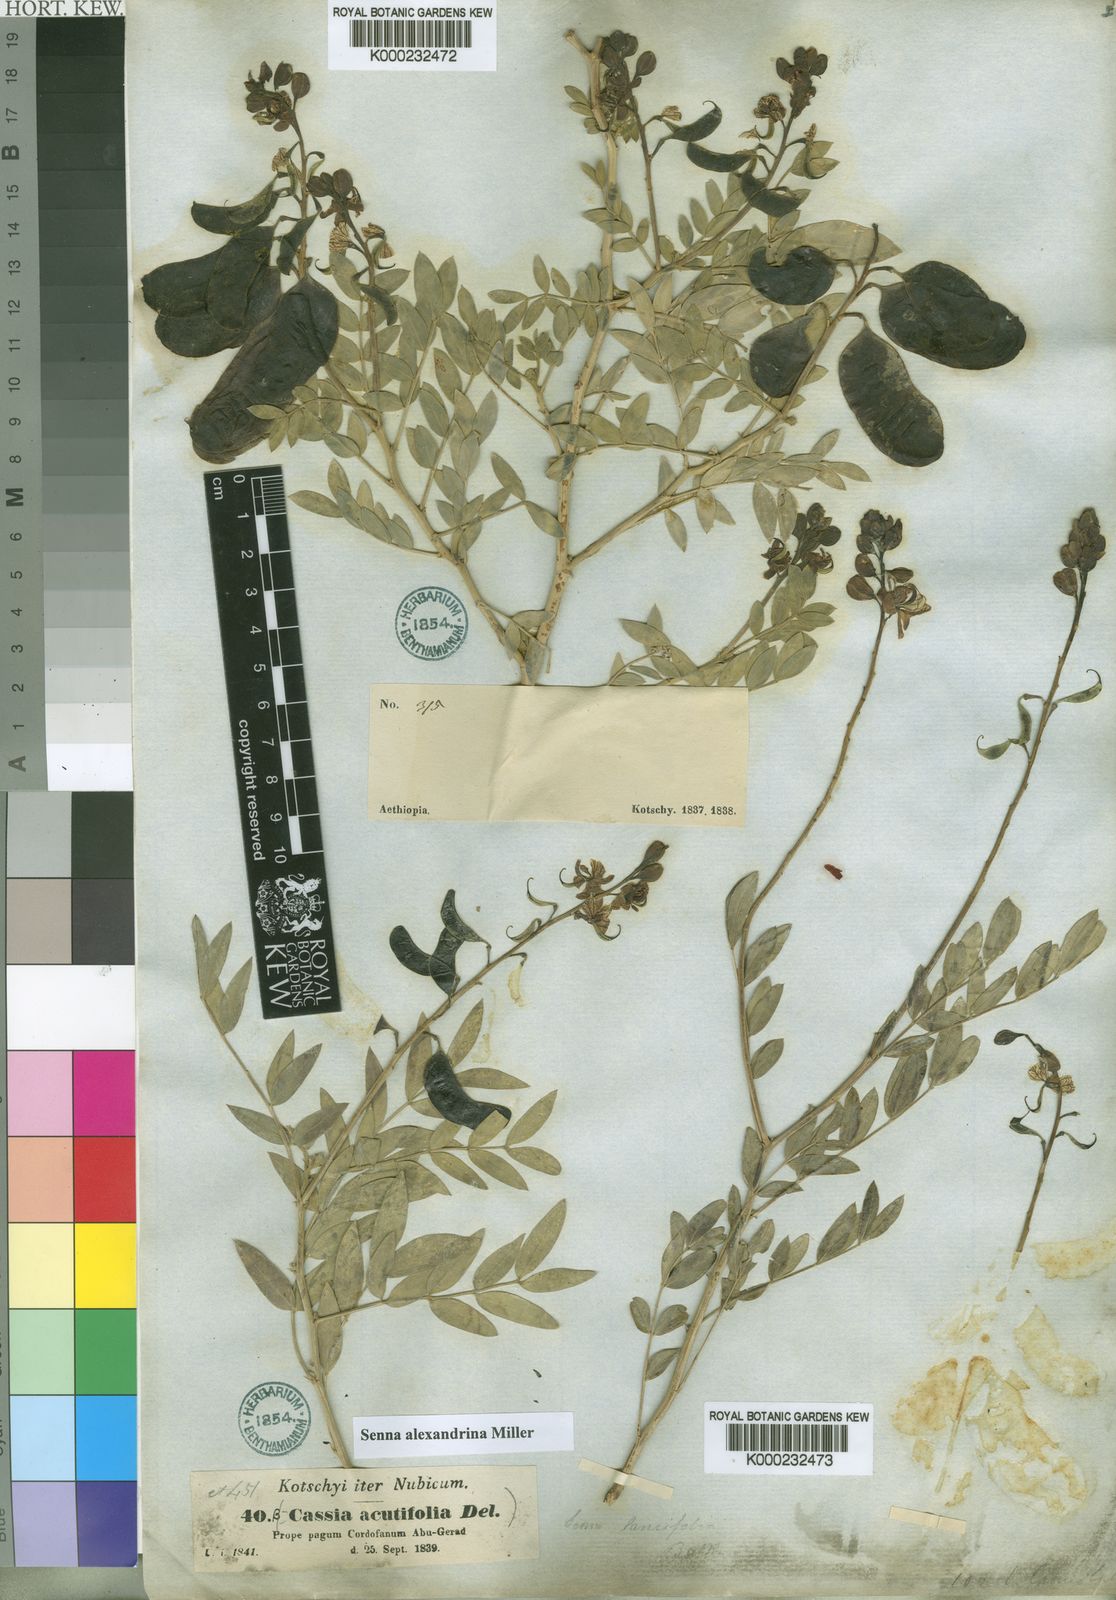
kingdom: Plantae
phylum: Tracheophyta
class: Magnoliopsida
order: Fabales
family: Fabaceae
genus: Senna
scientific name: Senna alexandrina
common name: True senna
